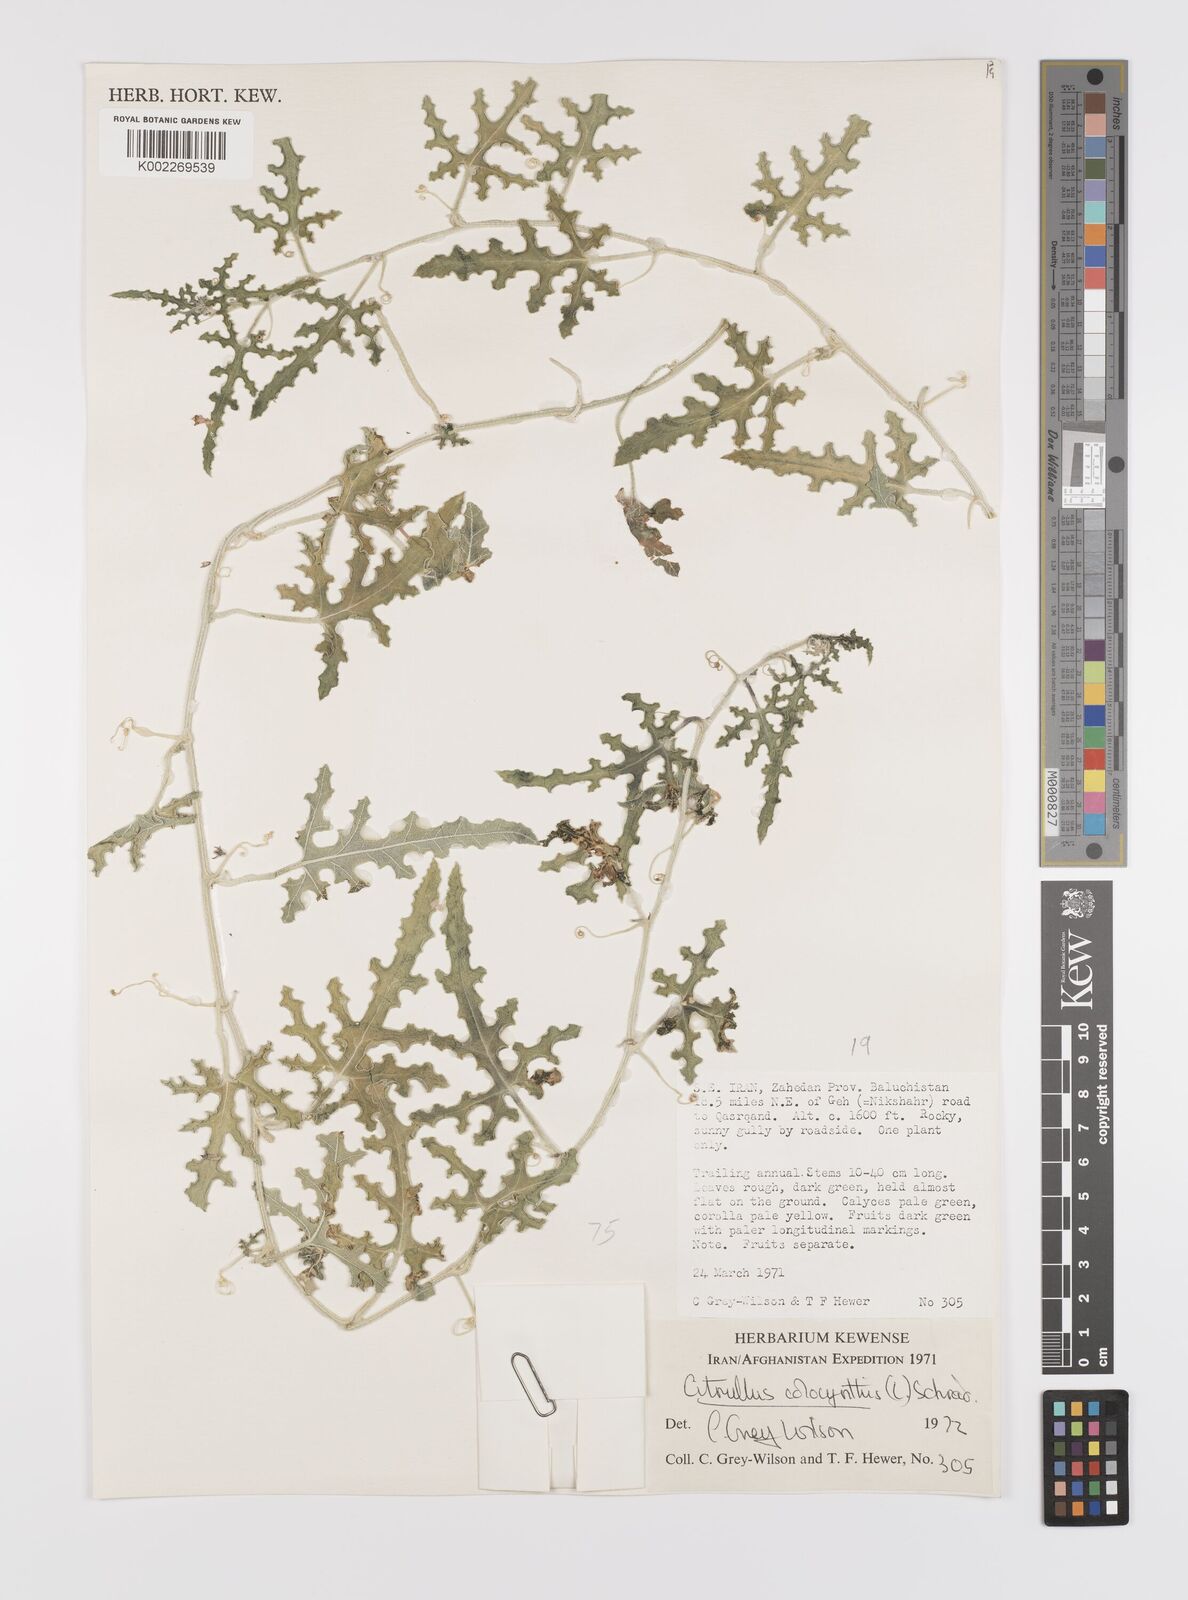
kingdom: Plantae
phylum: Tracheophyta
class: Magnoliopsida
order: Cucurbitales
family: Cucurbitaceae
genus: Citrullus
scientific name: Citrullus colocynthis
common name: Colocynth
